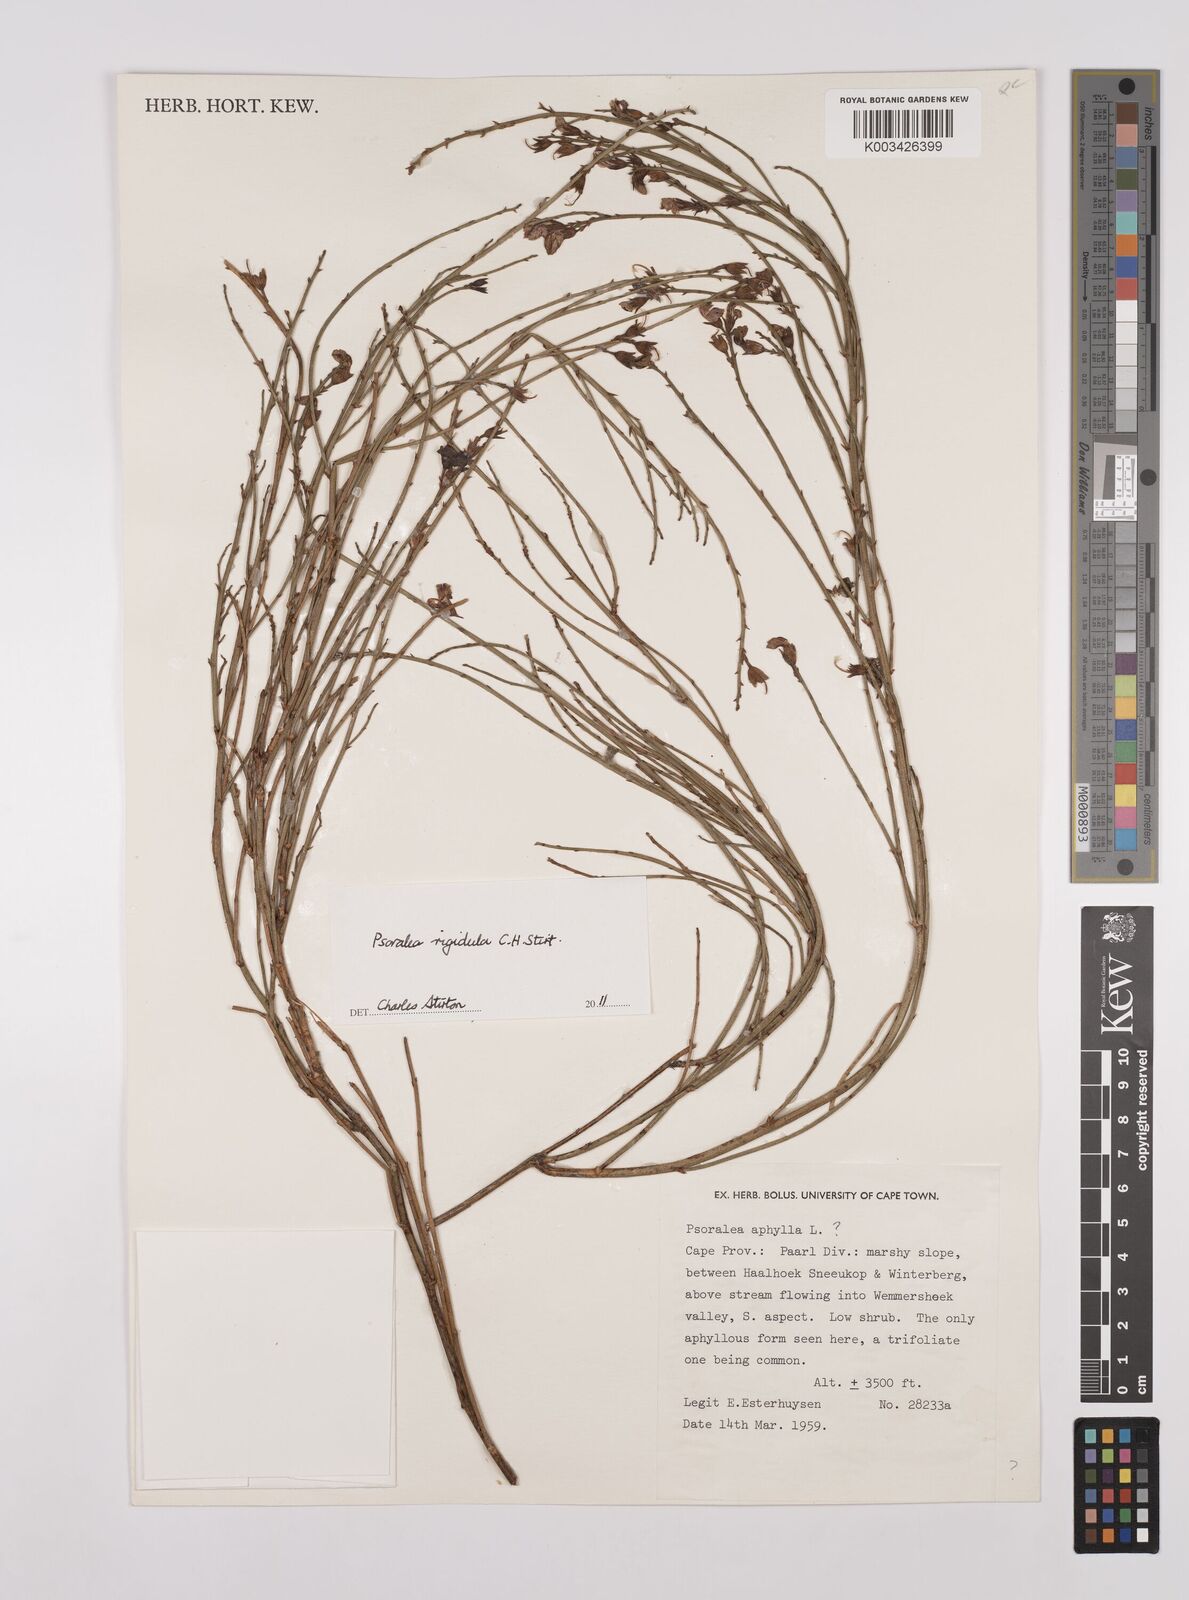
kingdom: Plantae
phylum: Tracheophyta
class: Magnoliopsida
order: Fabales
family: Fabaceae
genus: Psoralea
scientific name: Psoralea rigidula
